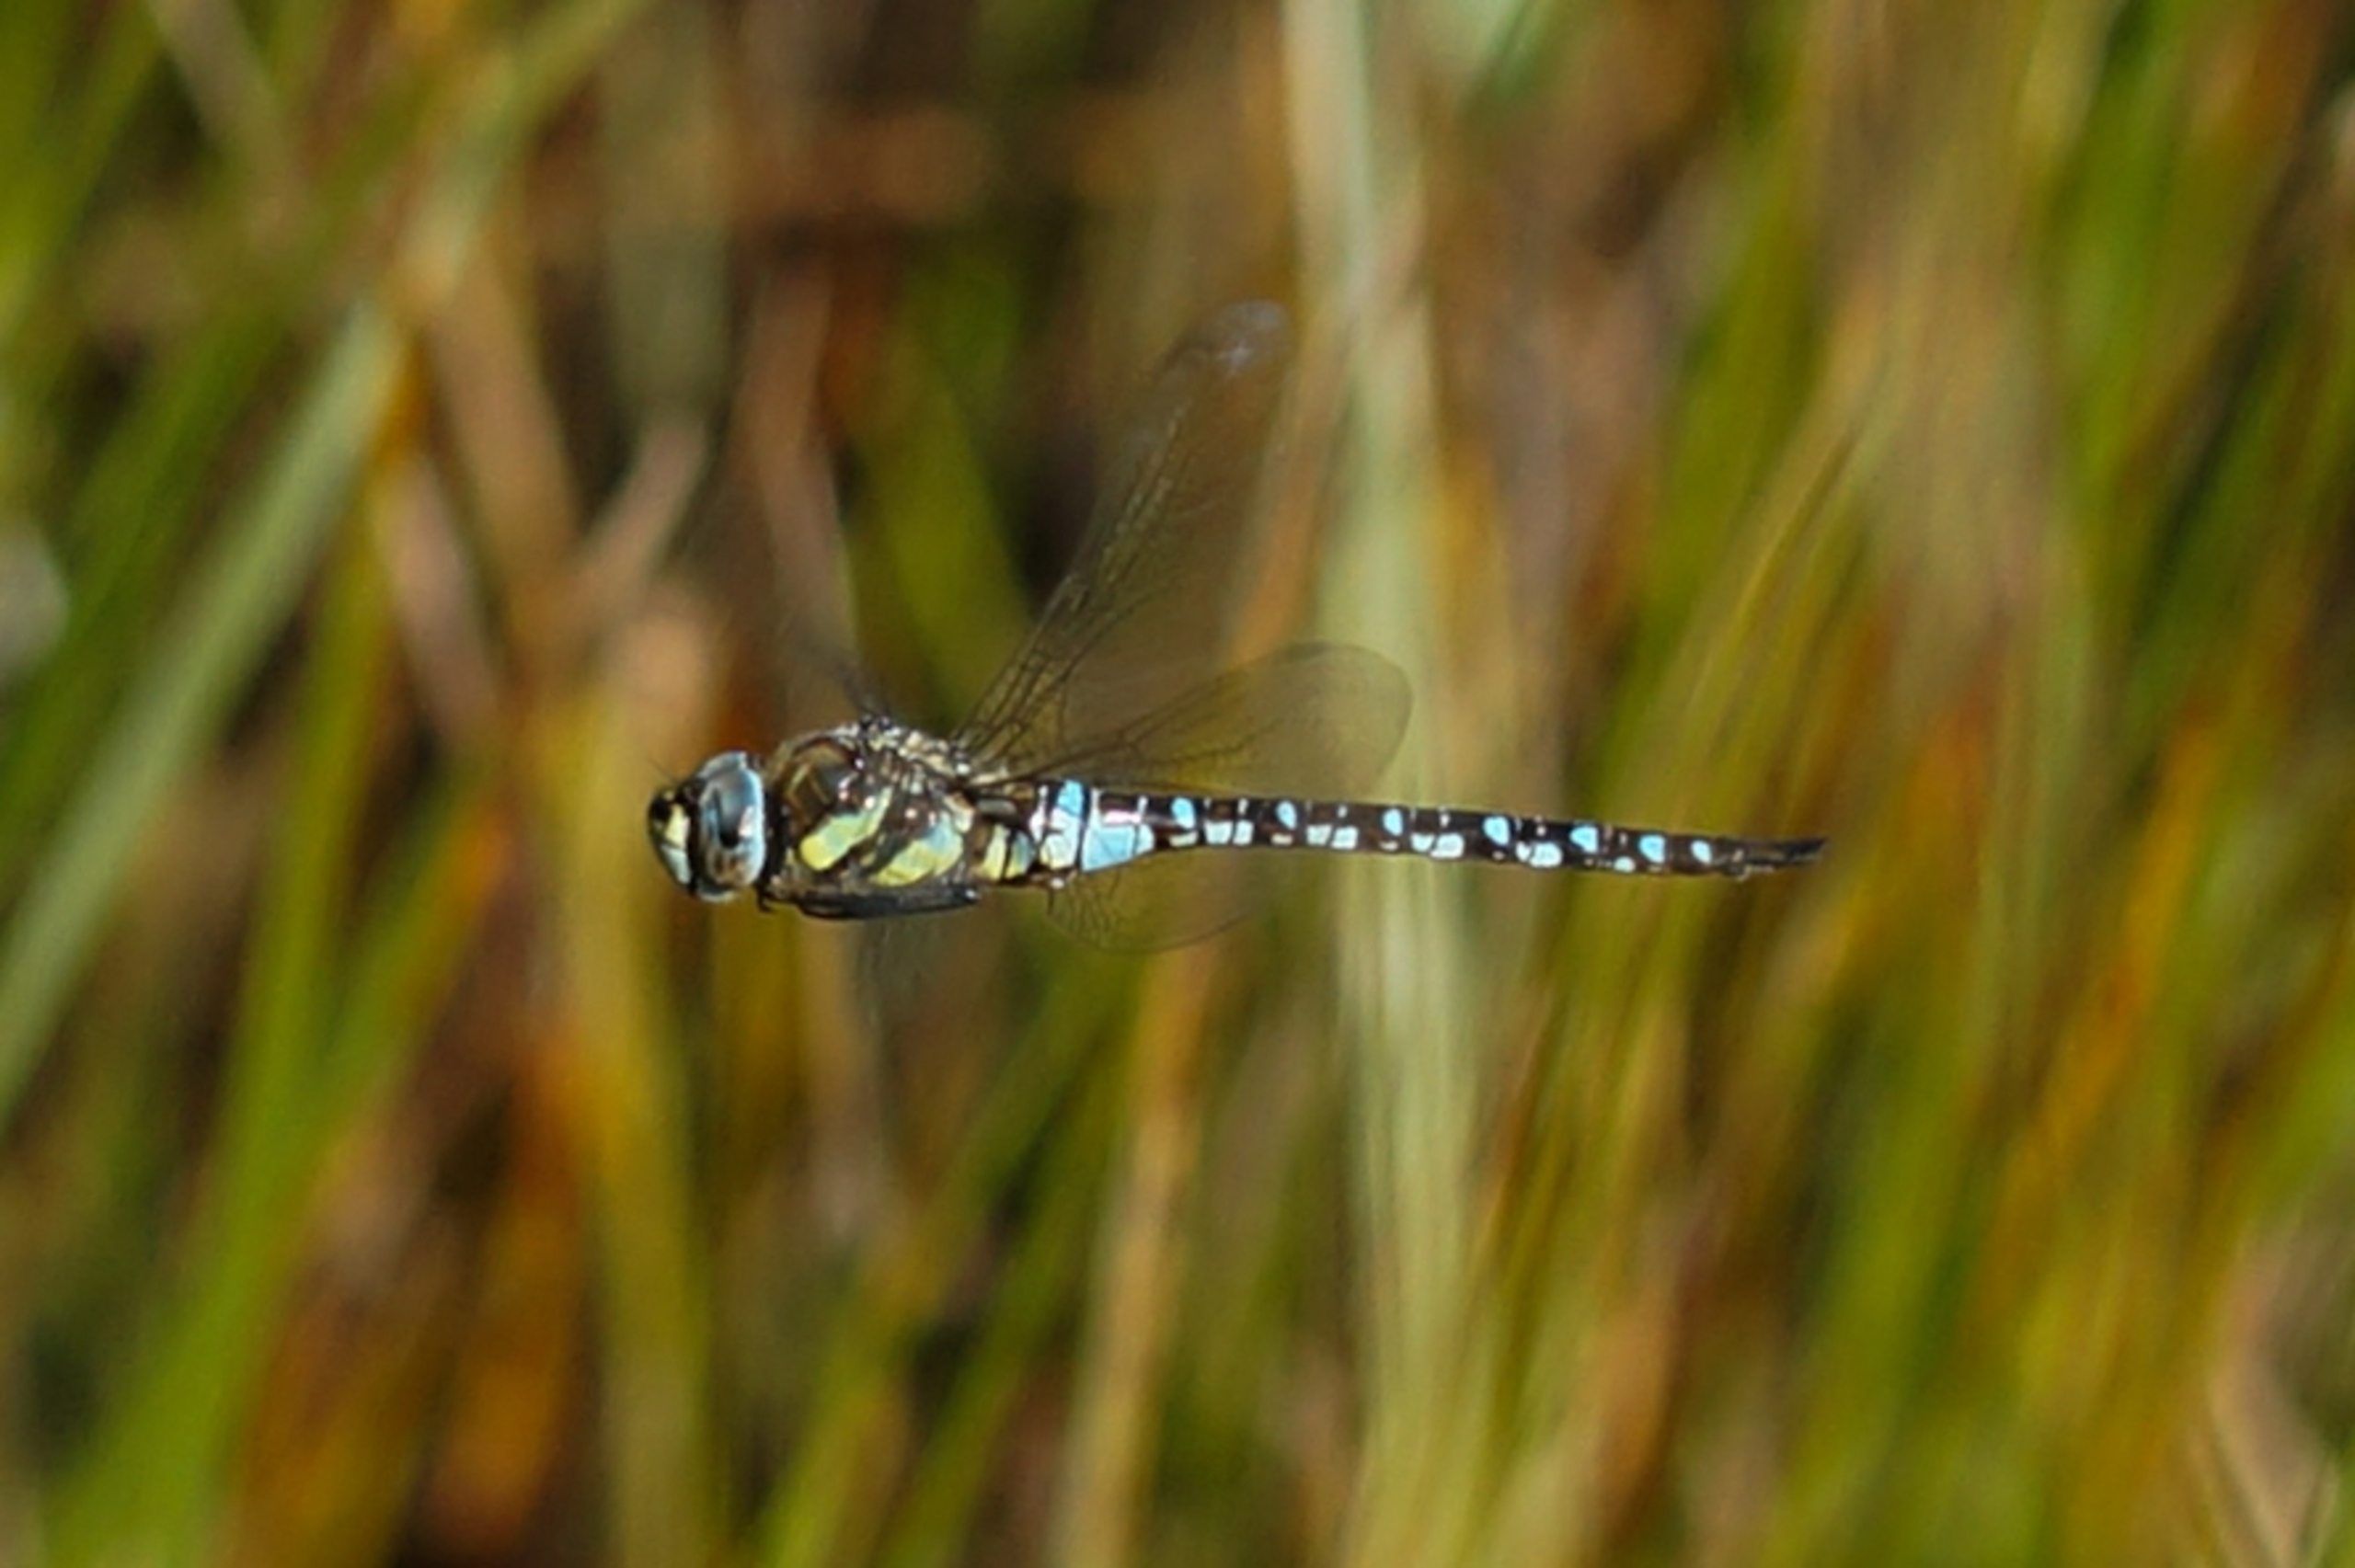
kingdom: Animalia
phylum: Arthropoda
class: Insecta
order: Odonata
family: Aeshnidae
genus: Aeshna
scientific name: Aeshna mixta
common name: Efterårs-mosaikguldsmed
